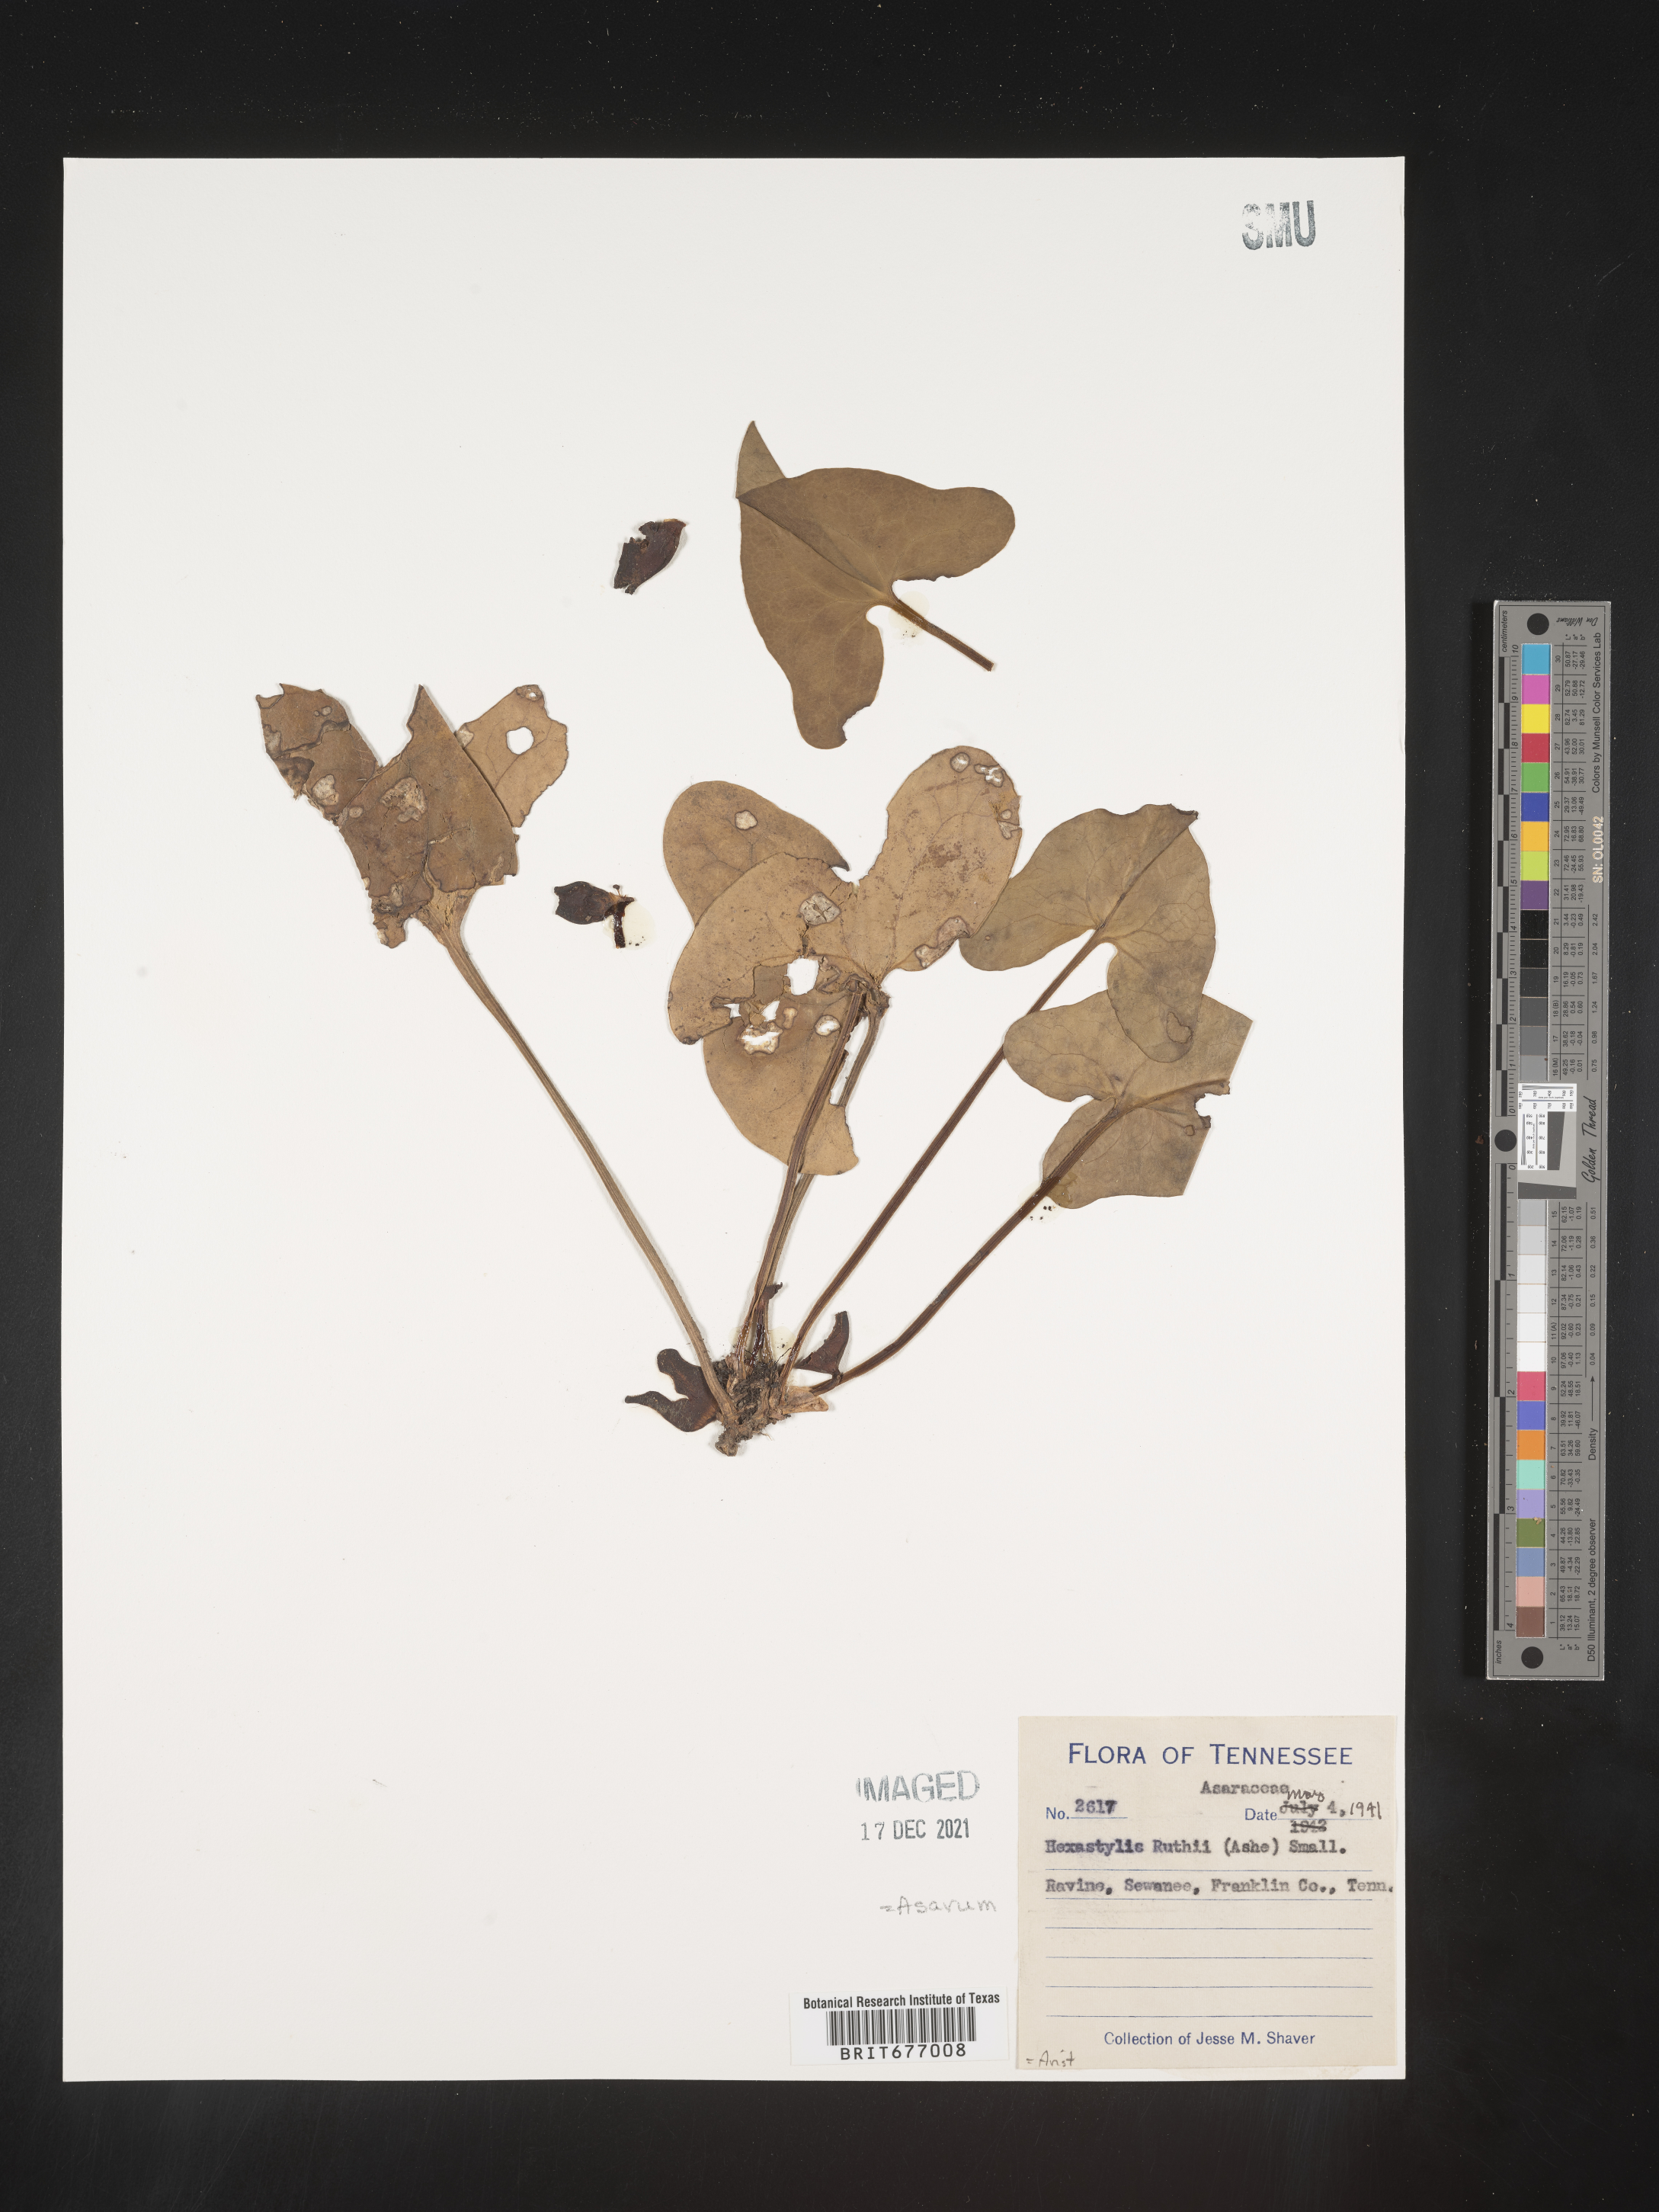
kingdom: Plantae
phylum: Tracheophyta
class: Magnoliopsida
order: Piperales
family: Aristolochiaceae
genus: Asarum
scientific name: Asarum
